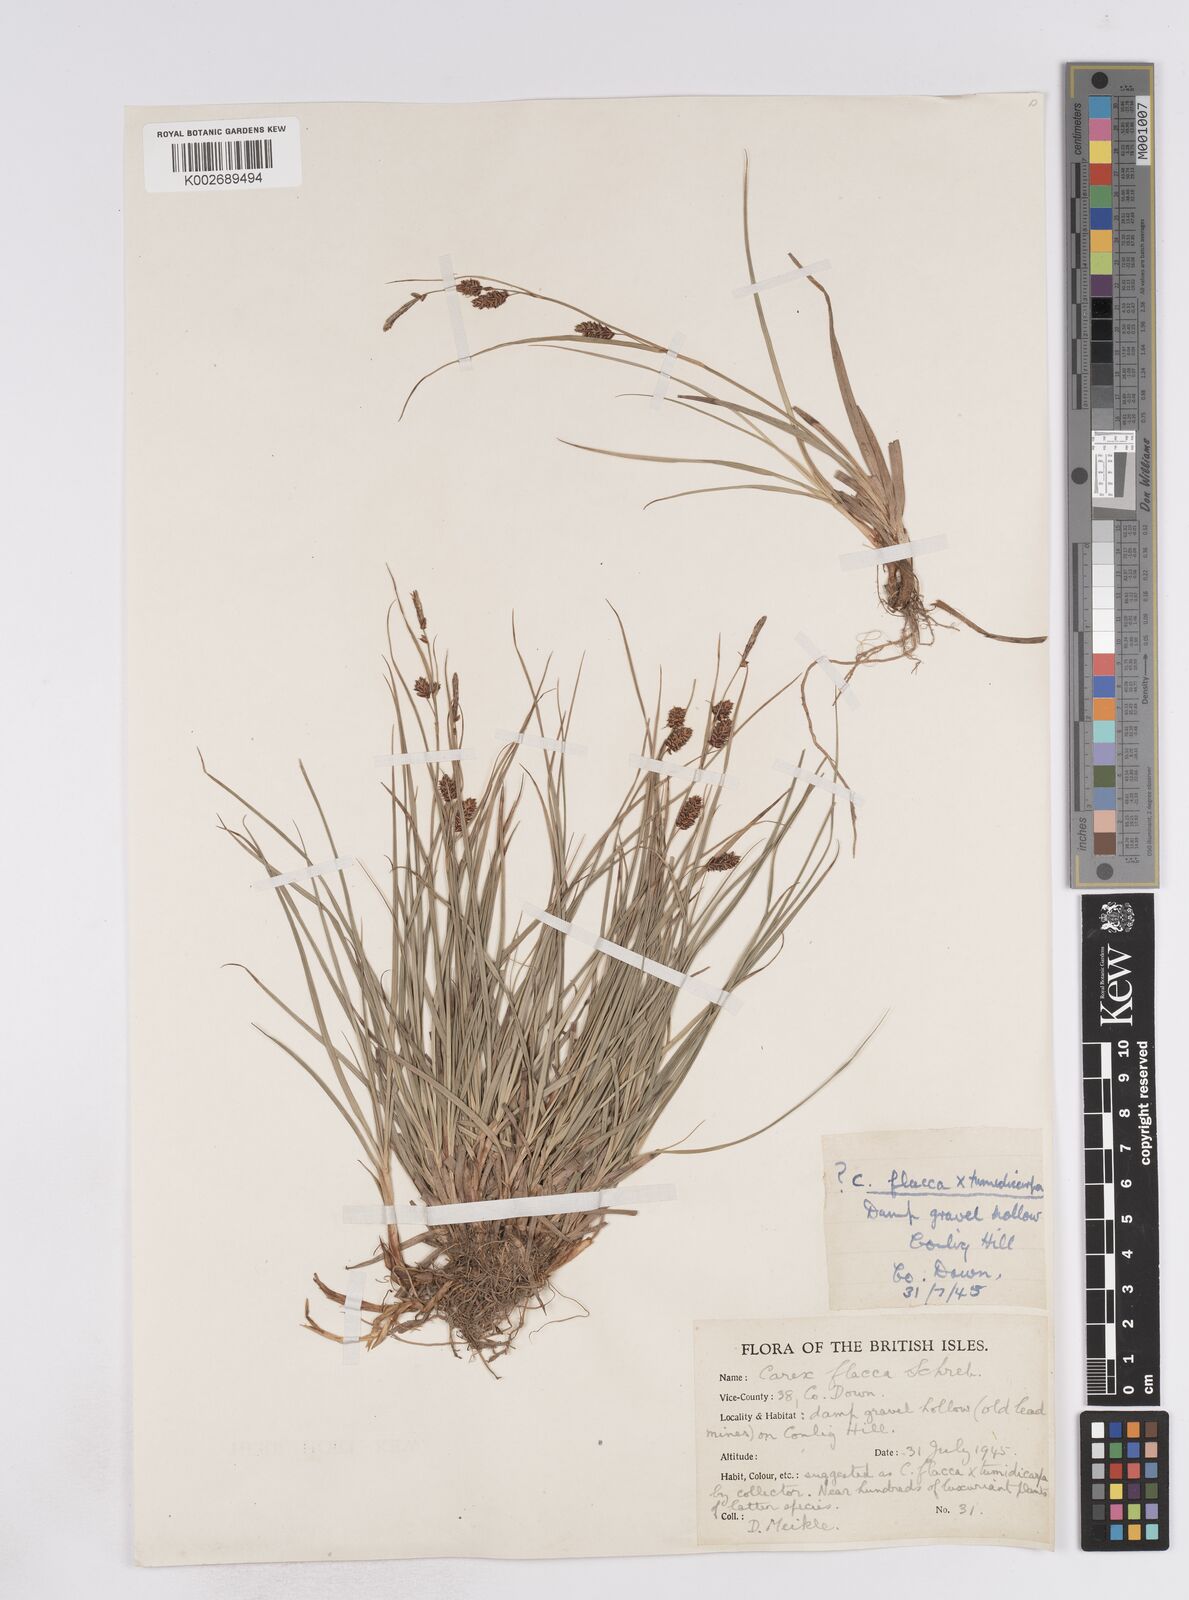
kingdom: Plantae
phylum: Tracheophyta
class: Liliopsida
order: Poales
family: Cyperaceae
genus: Carex
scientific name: Carex flacca
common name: Glaucous sedge
